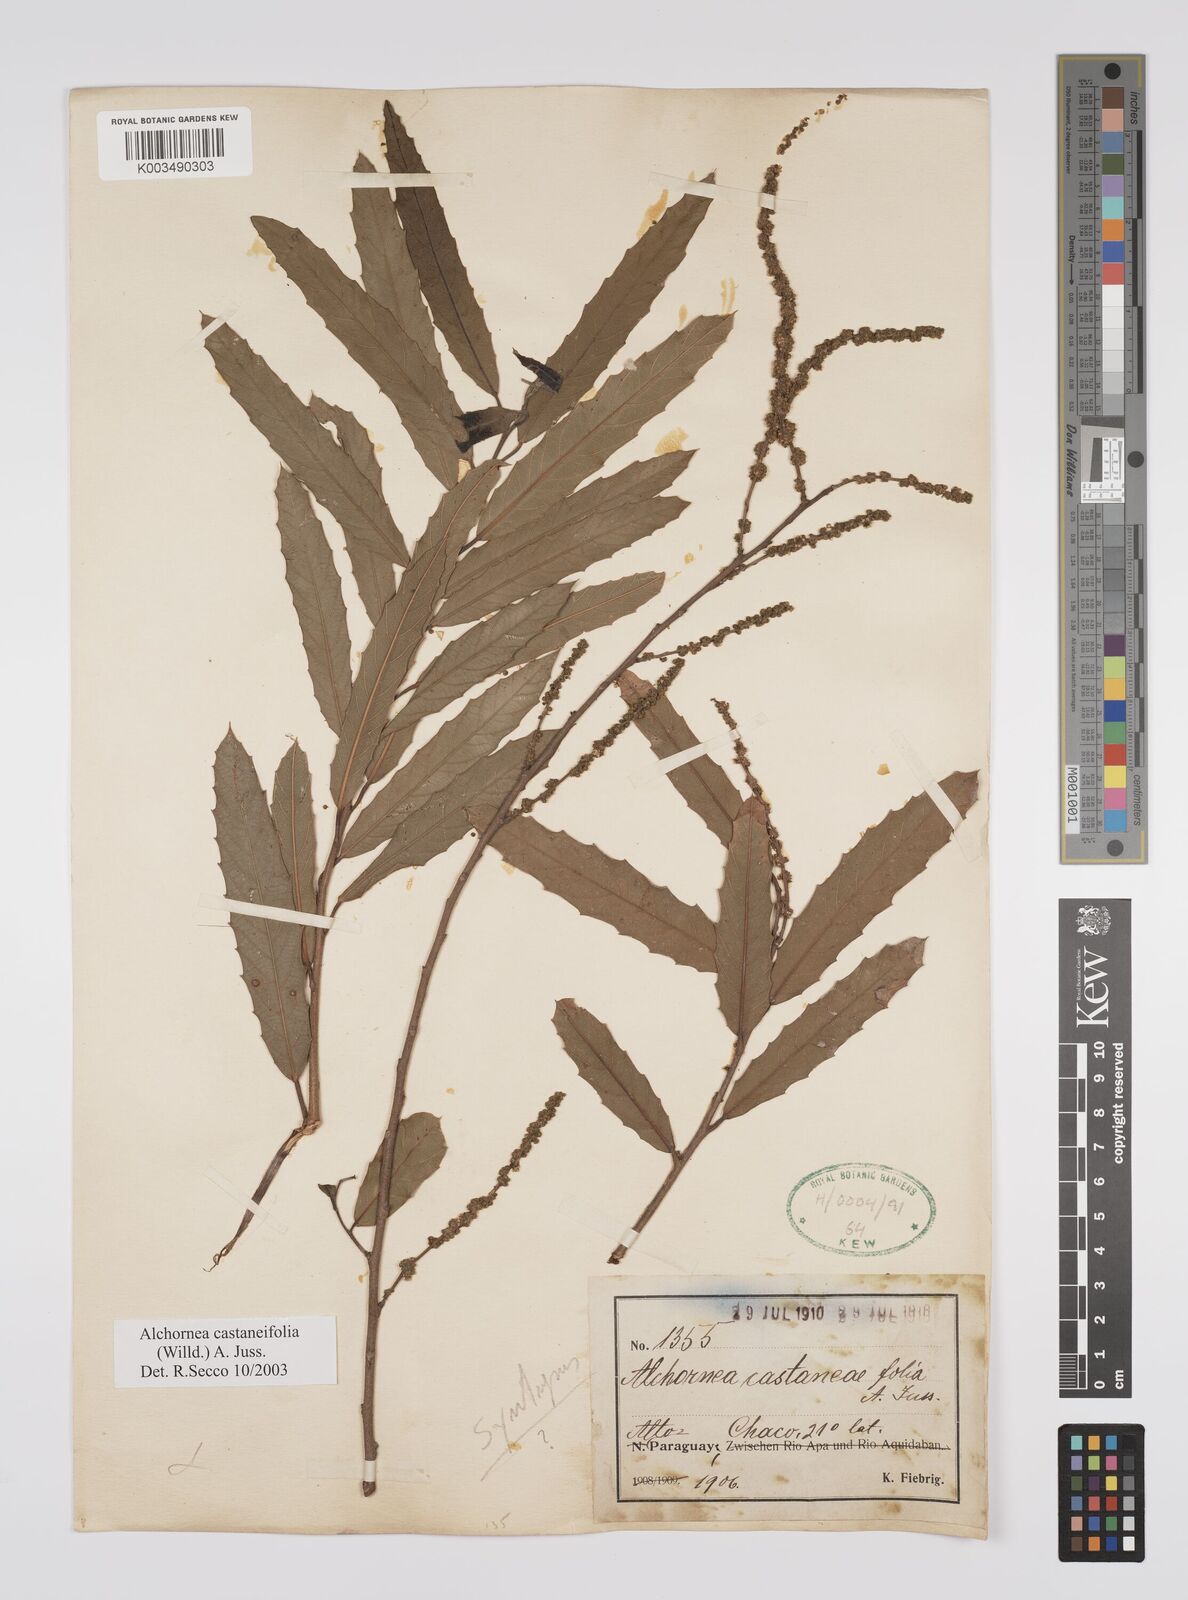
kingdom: Plantae
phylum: Tracheophyta
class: Magnoliopsida
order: Malpighiales
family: Euphorbiaceae
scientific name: Euphorbiaceae
